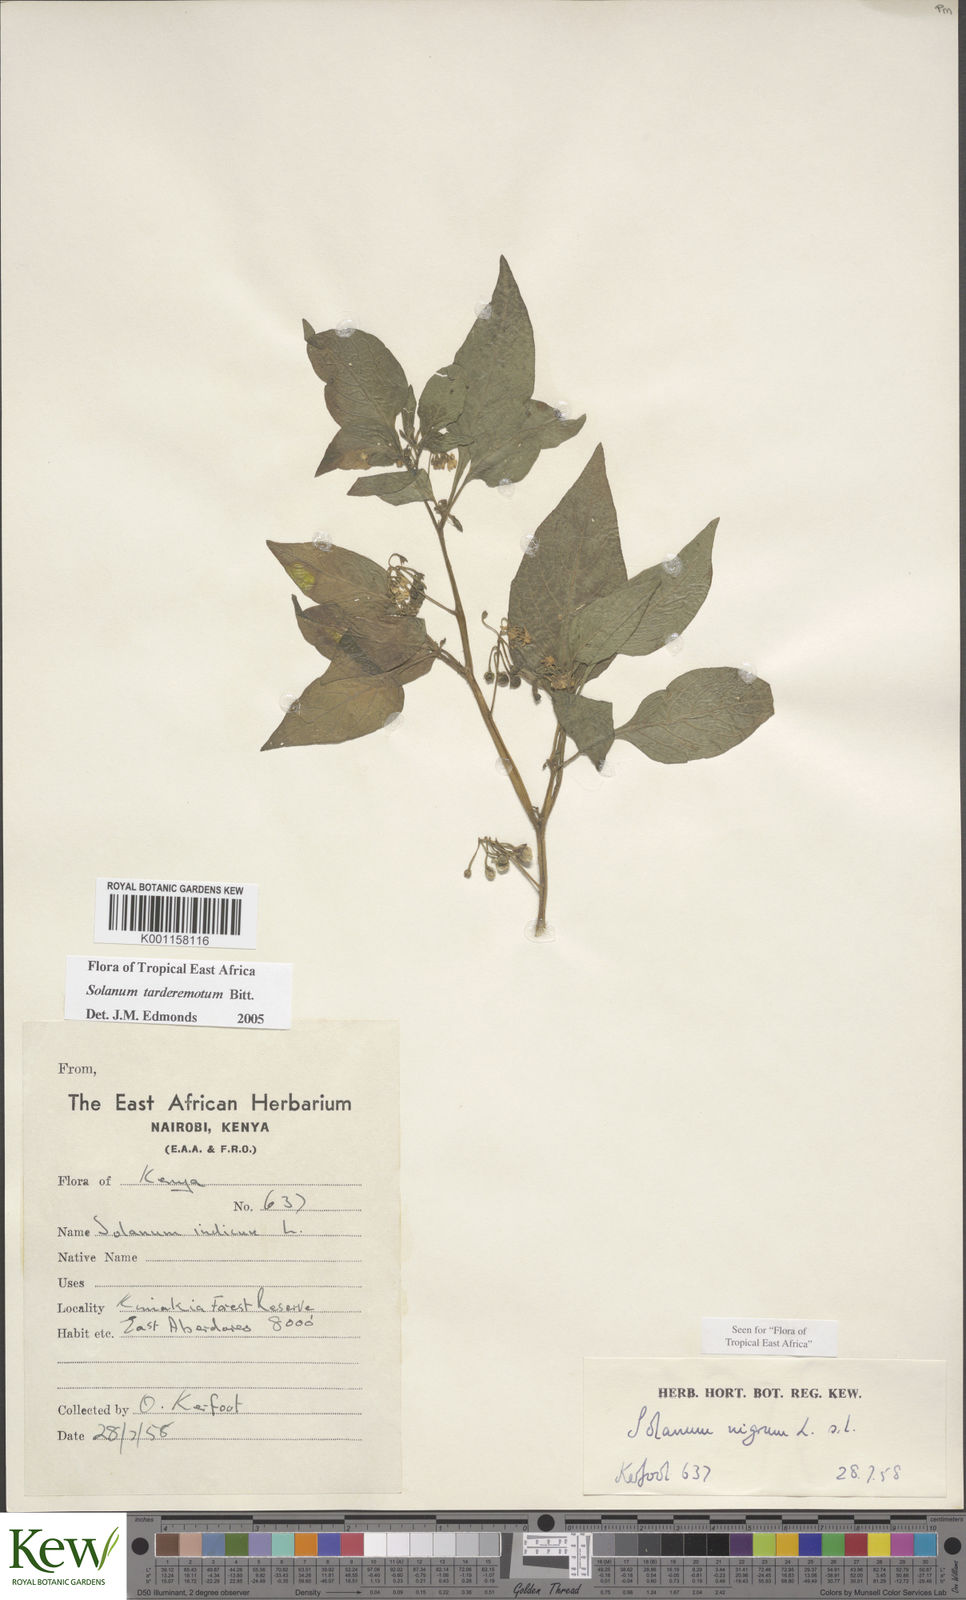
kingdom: Plantae
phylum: Tracheophyta
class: Magnoliopsida
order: Solanales
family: Solanaceae
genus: Solanum
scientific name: Solanum tarderemotum
